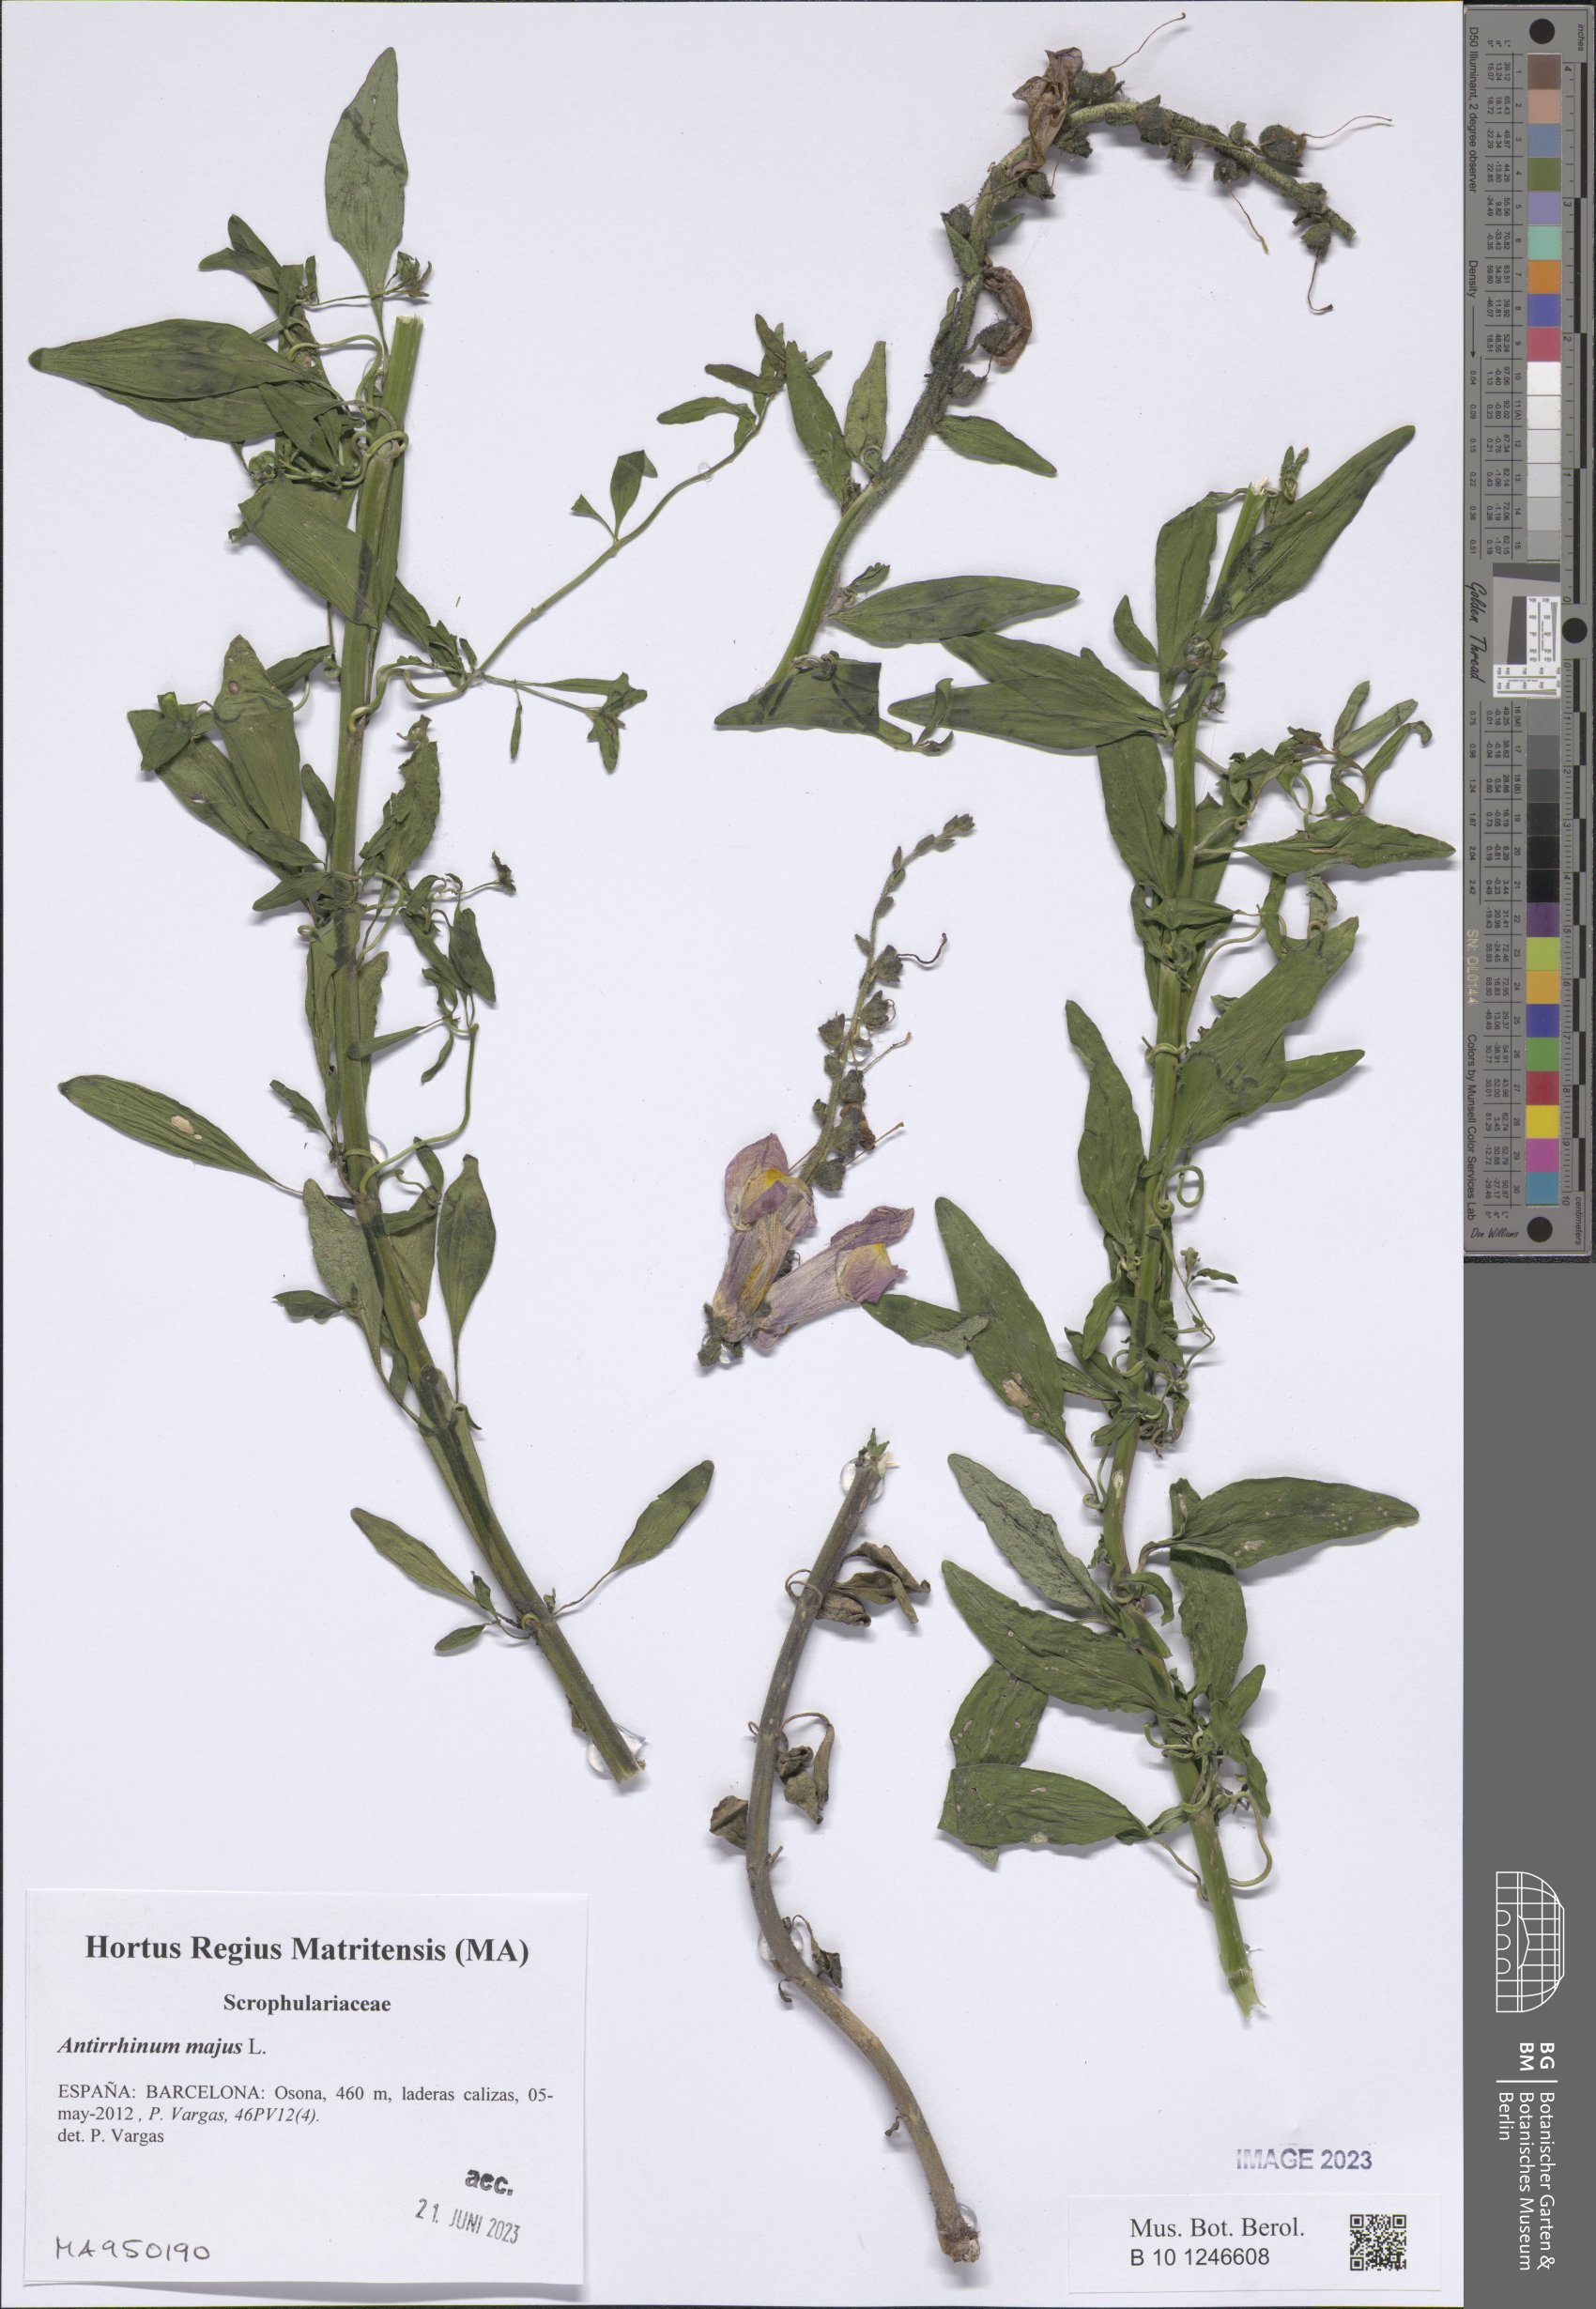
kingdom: Plantae
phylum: Tracheophyta
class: Magnoliopsida
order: Lamiales
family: Plantaginaceae
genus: Antirrhinum
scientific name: Antirrhinum majus
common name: Snapdragon
